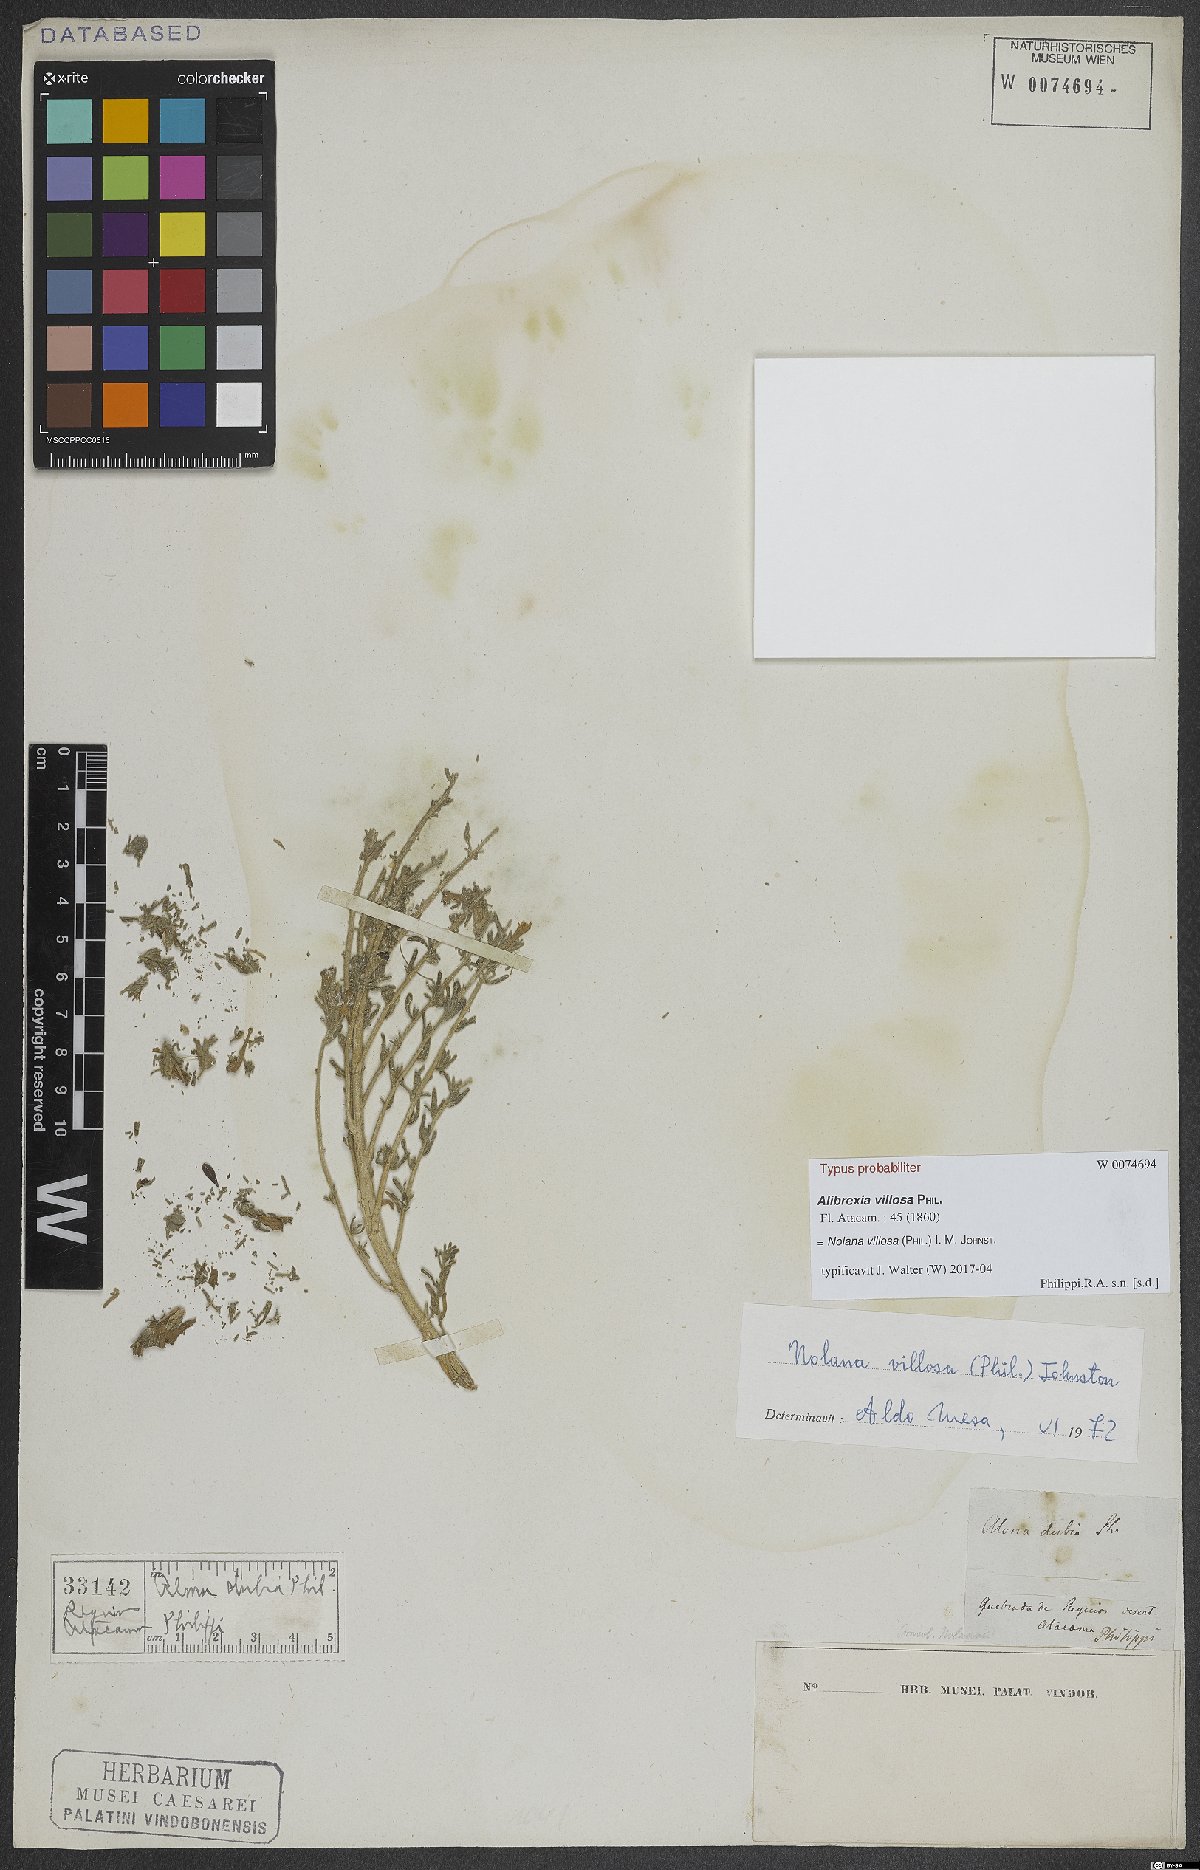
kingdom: Plantae
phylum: Tracheophyta
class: Magnoliopsida
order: Solanales
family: Solanaceae
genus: Nolana
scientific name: Nolana villosa
